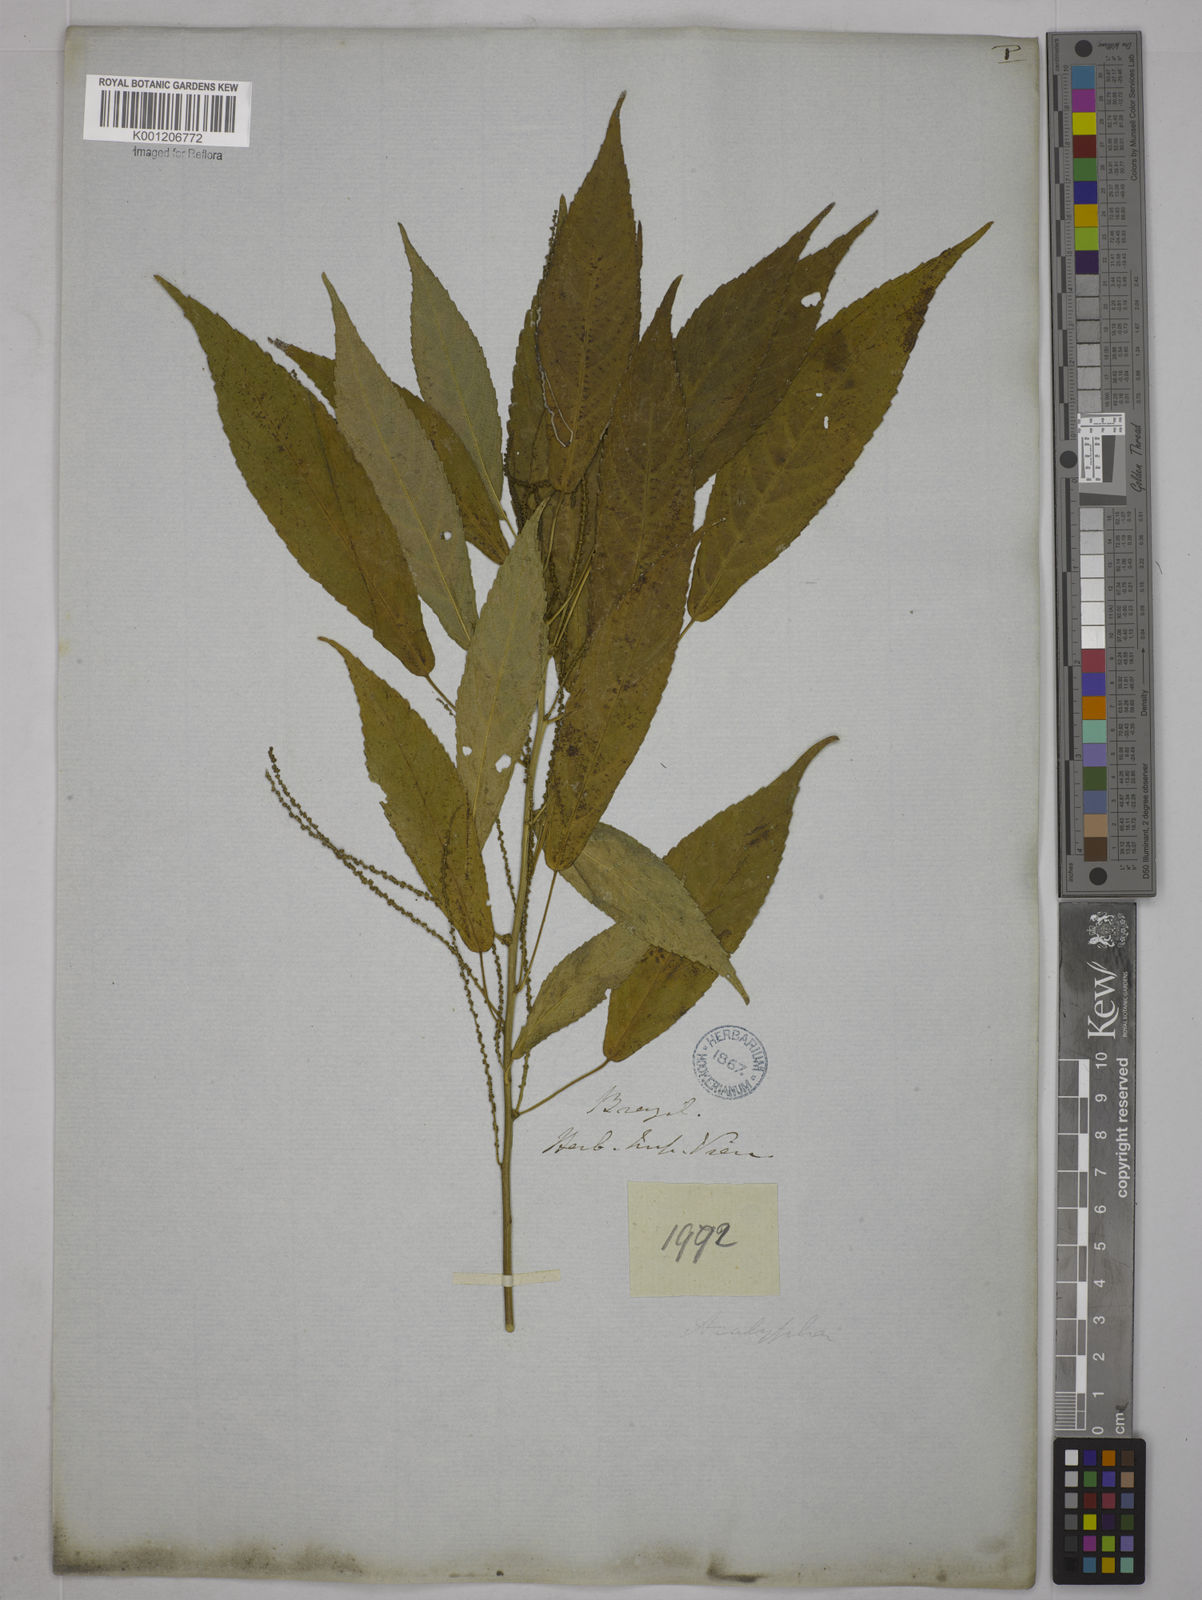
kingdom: Plantae
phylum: Tracheophyta
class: Magnoliopsida
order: Malpighiales
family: Euphorbiaceae
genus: Acalypha
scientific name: Acalypha
